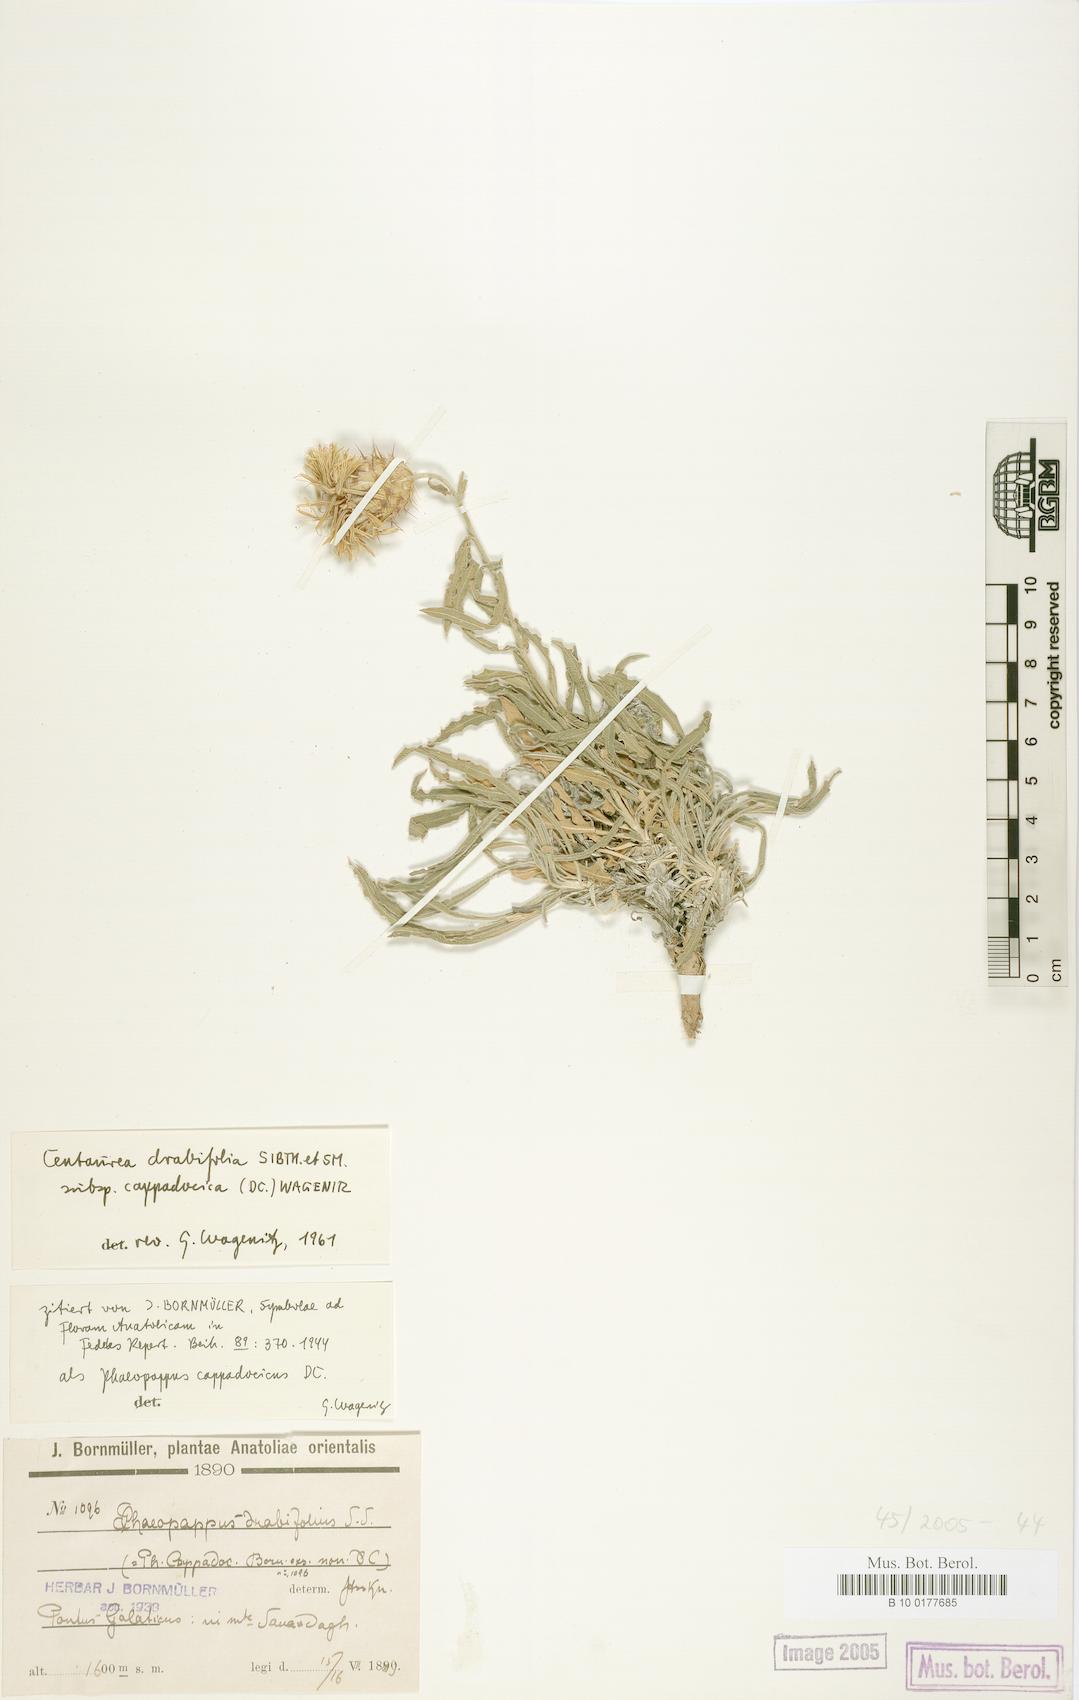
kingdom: Plantae
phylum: Tracheophyta
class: Magnoliopsida
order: Asterales
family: Asteraceae
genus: Centaurea
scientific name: Centaurea drabifolia
